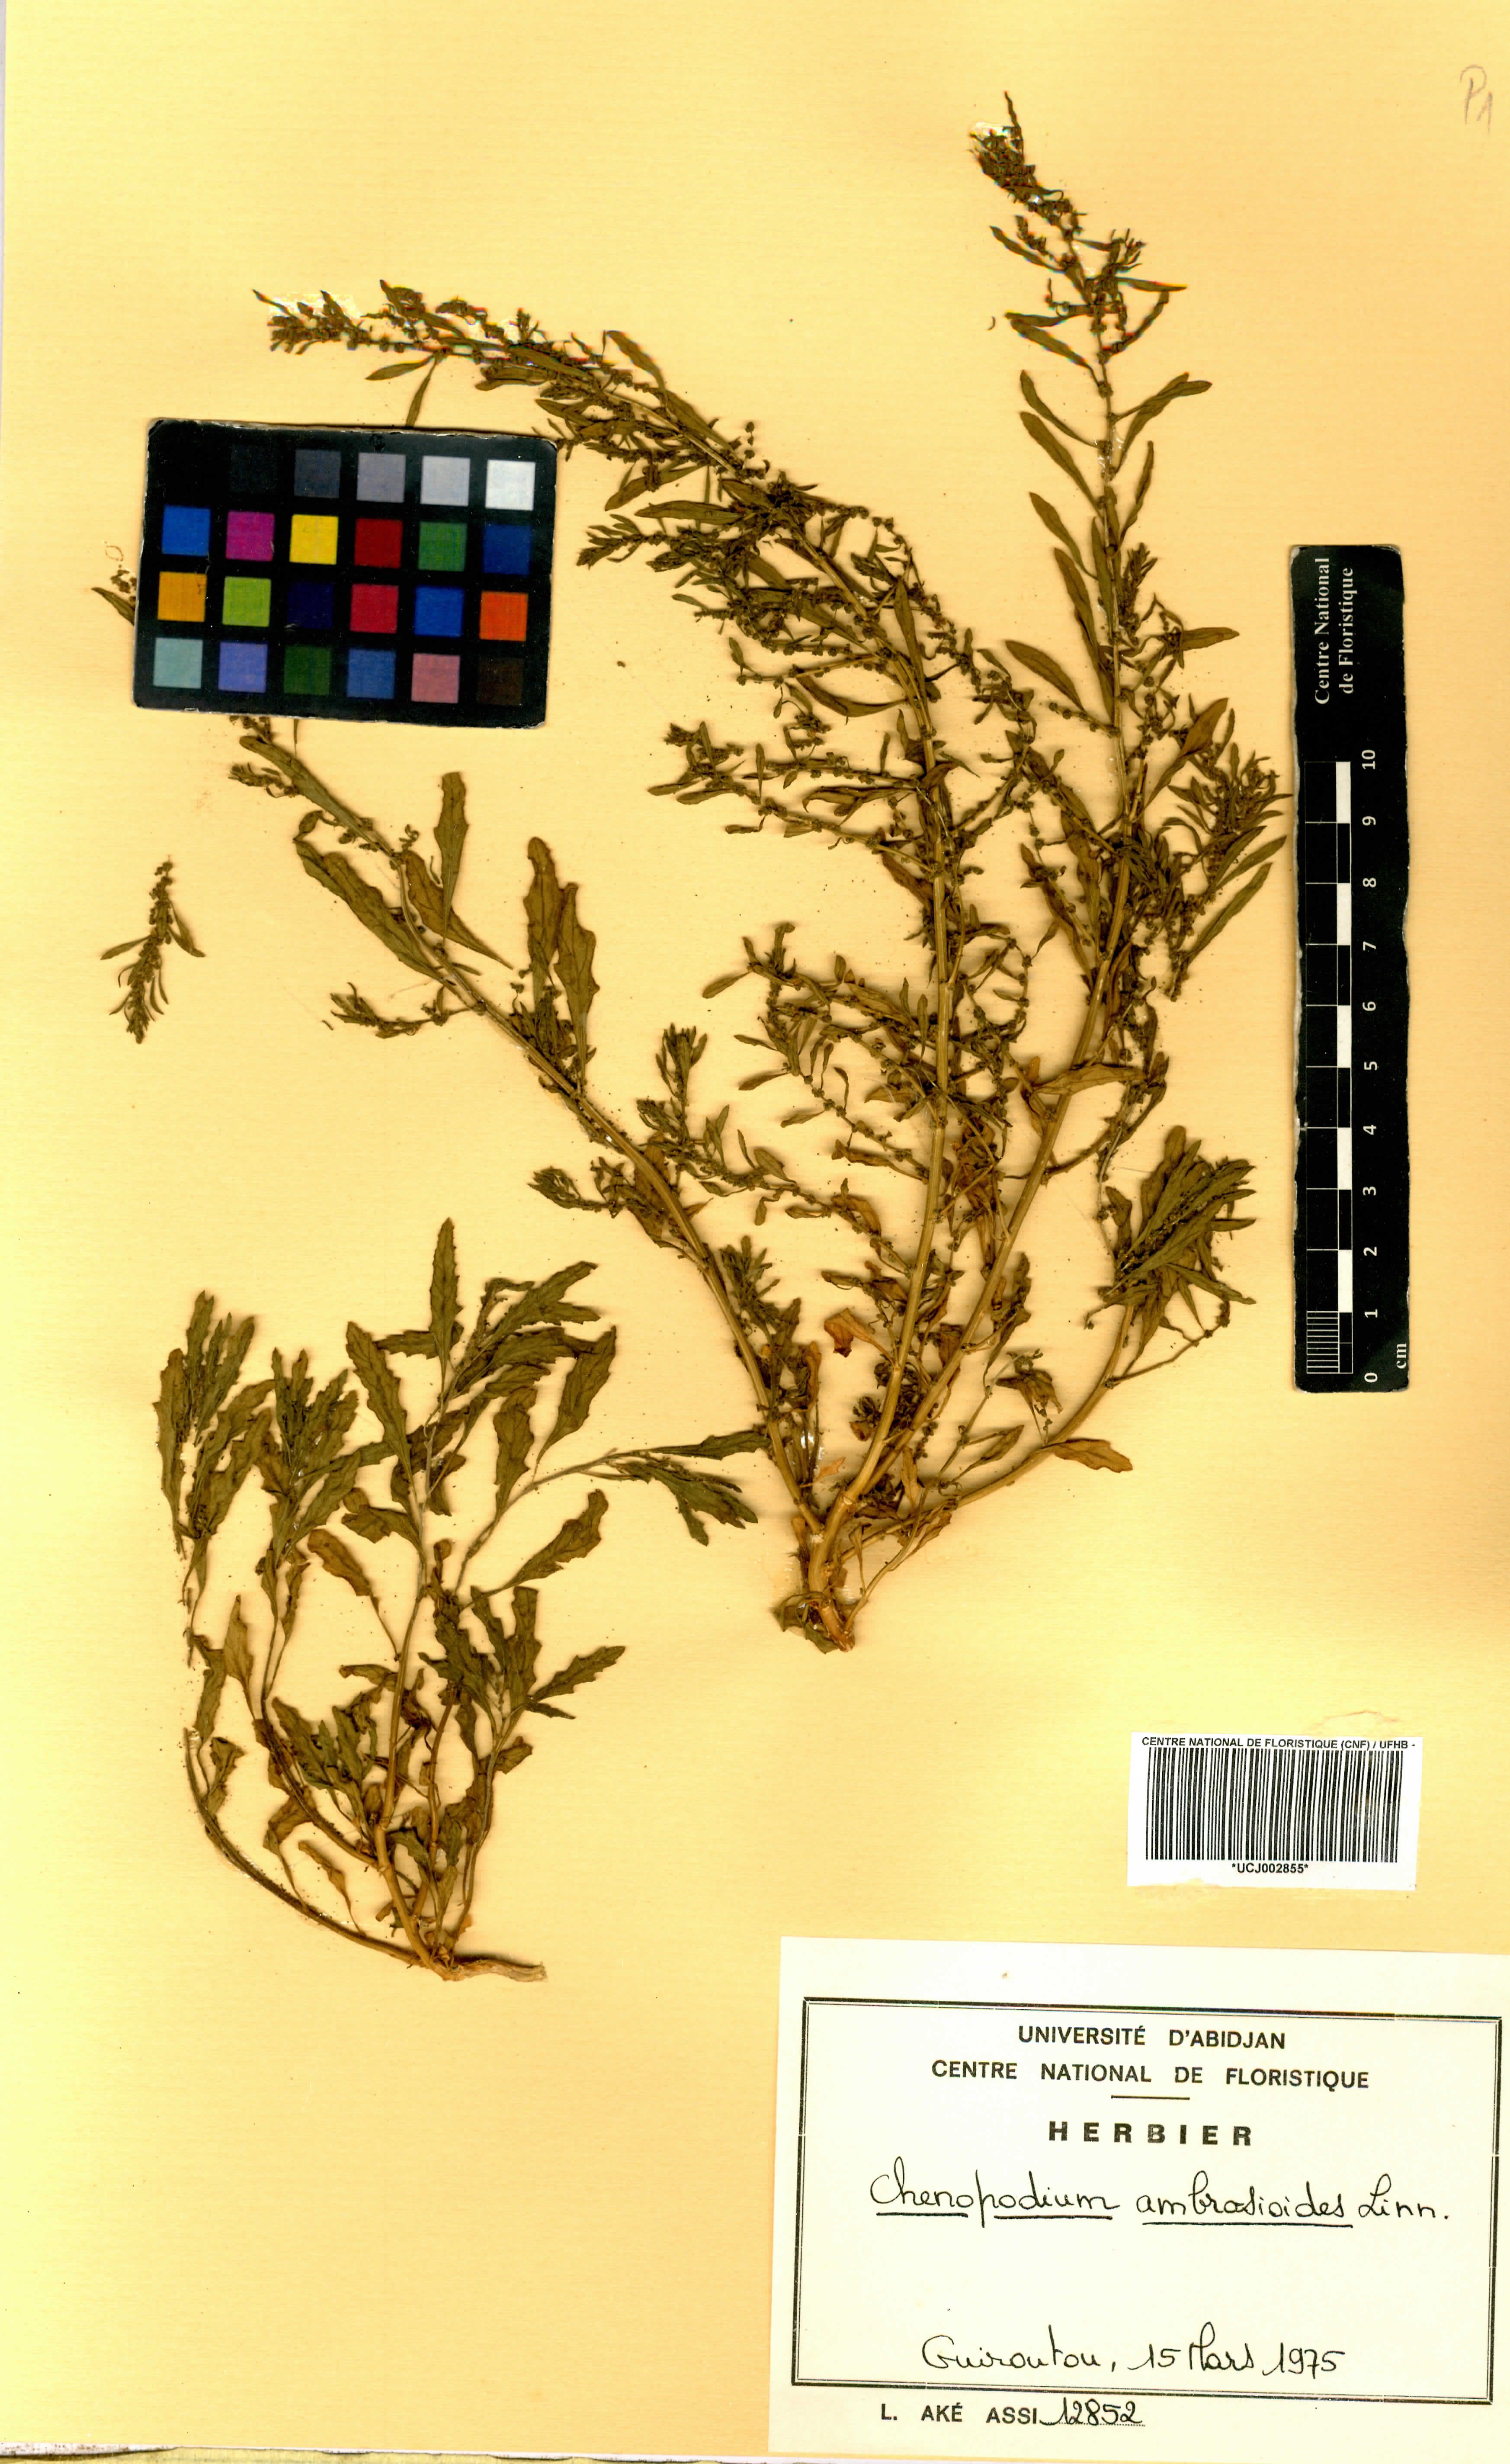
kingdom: Plantae
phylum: Tracheophyta
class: Magnoliopsida
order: Caryophyllales
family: Amaranthaceae
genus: Dysphania
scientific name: Dysphania ambrosioides
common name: Wormseed
